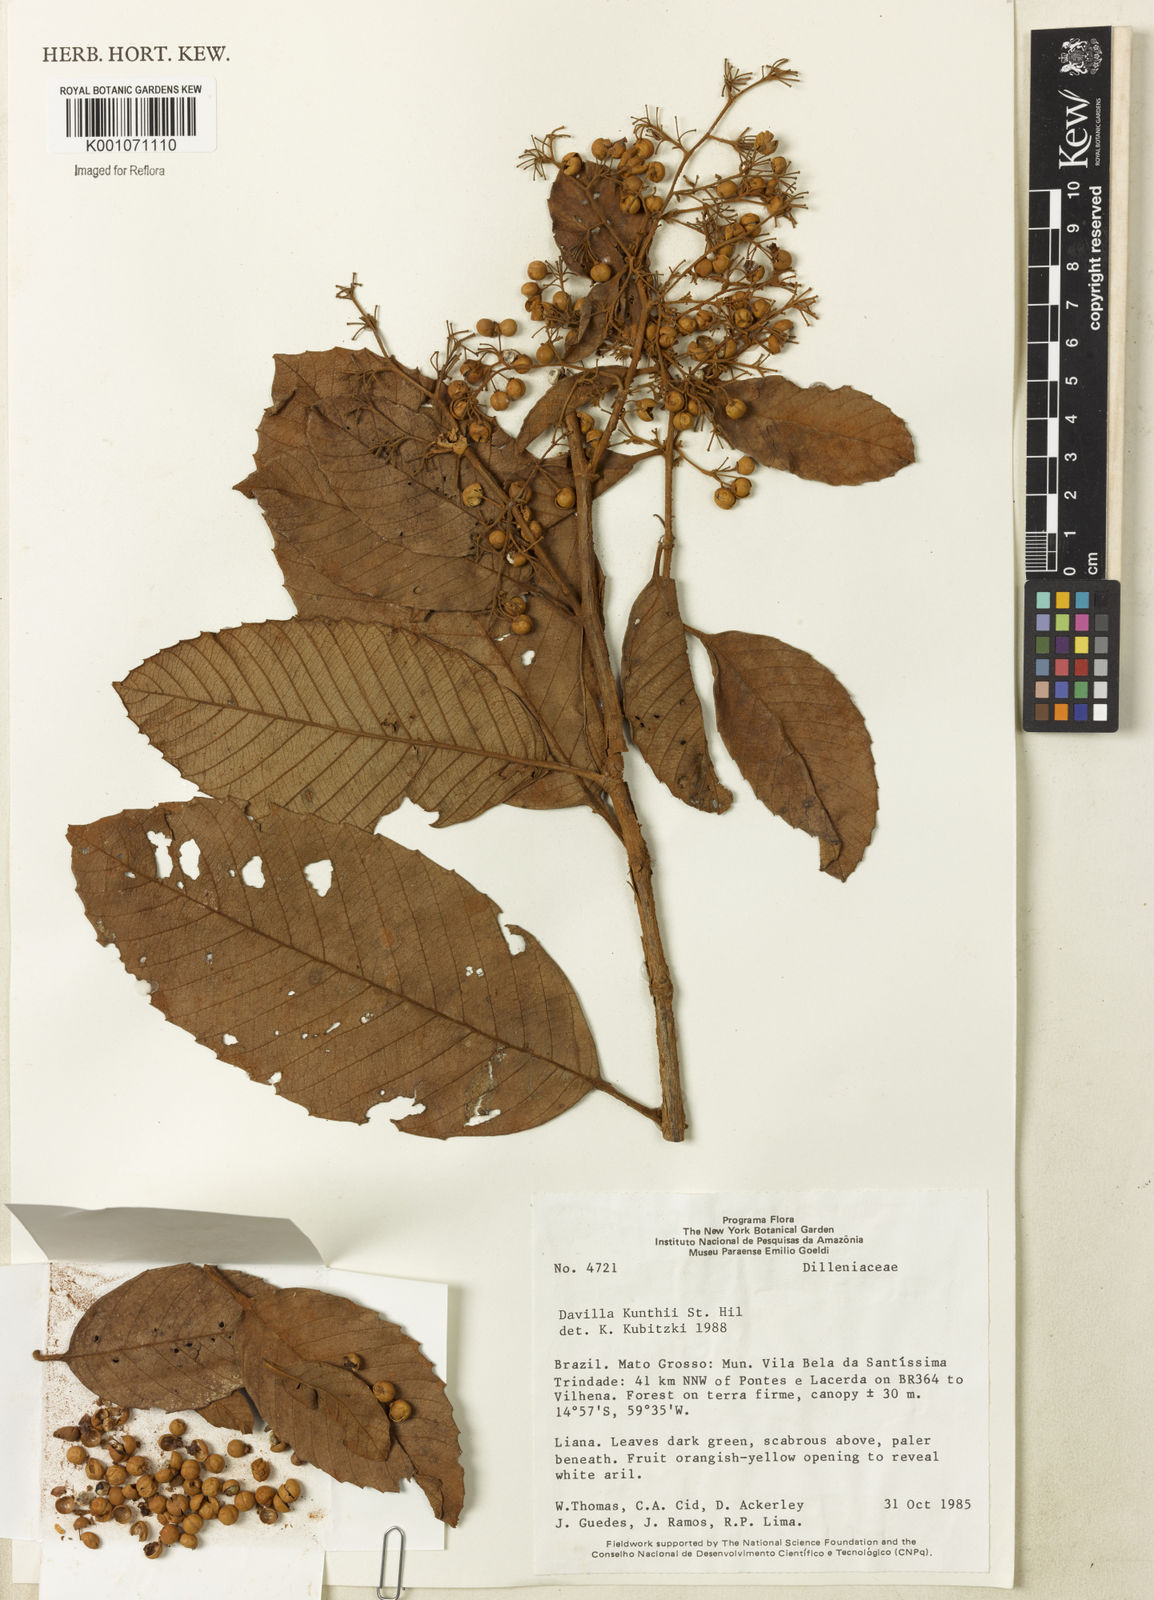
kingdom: Plantae
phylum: Tracheophyta
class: Magnoliopsida
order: Dilleniales
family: Dilleniaceae
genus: Davilla
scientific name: Davilla
